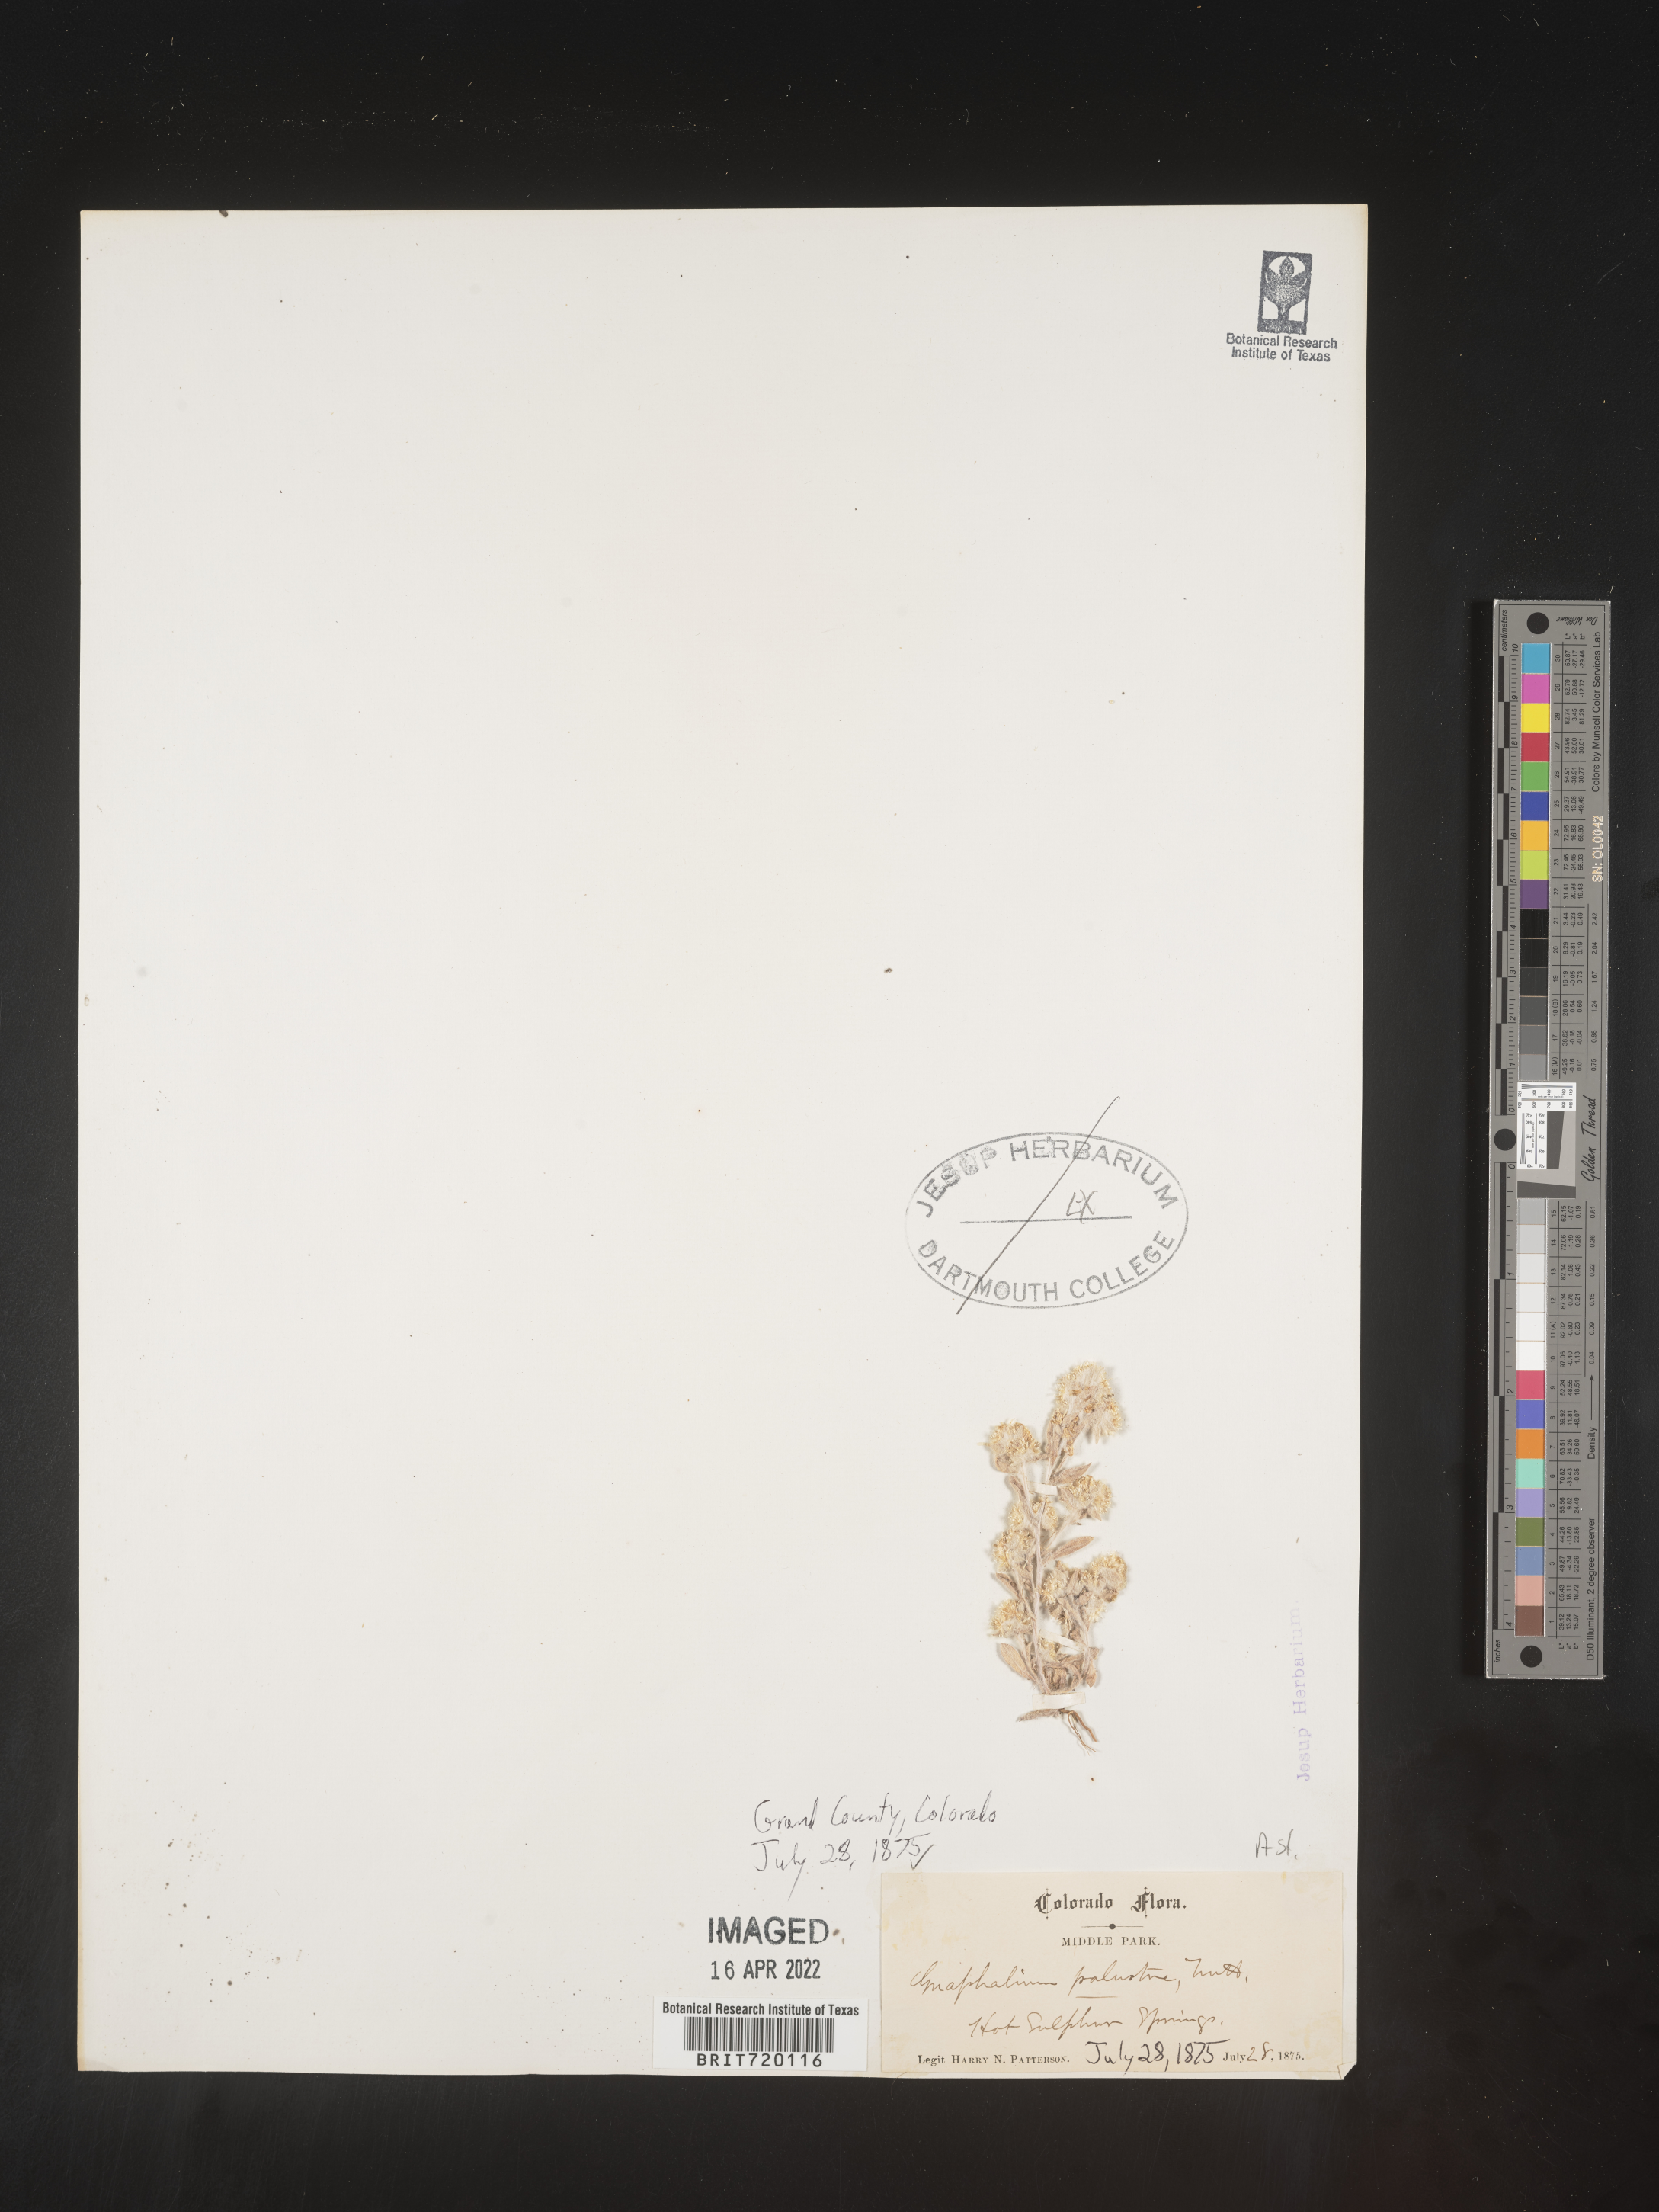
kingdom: Plantae
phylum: Tracheophyta
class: Magnoliopsida
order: Asterales
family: Asteraceae
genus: Gnaphalium
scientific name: Gnaphalium palustre
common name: Western marsh cudweed
